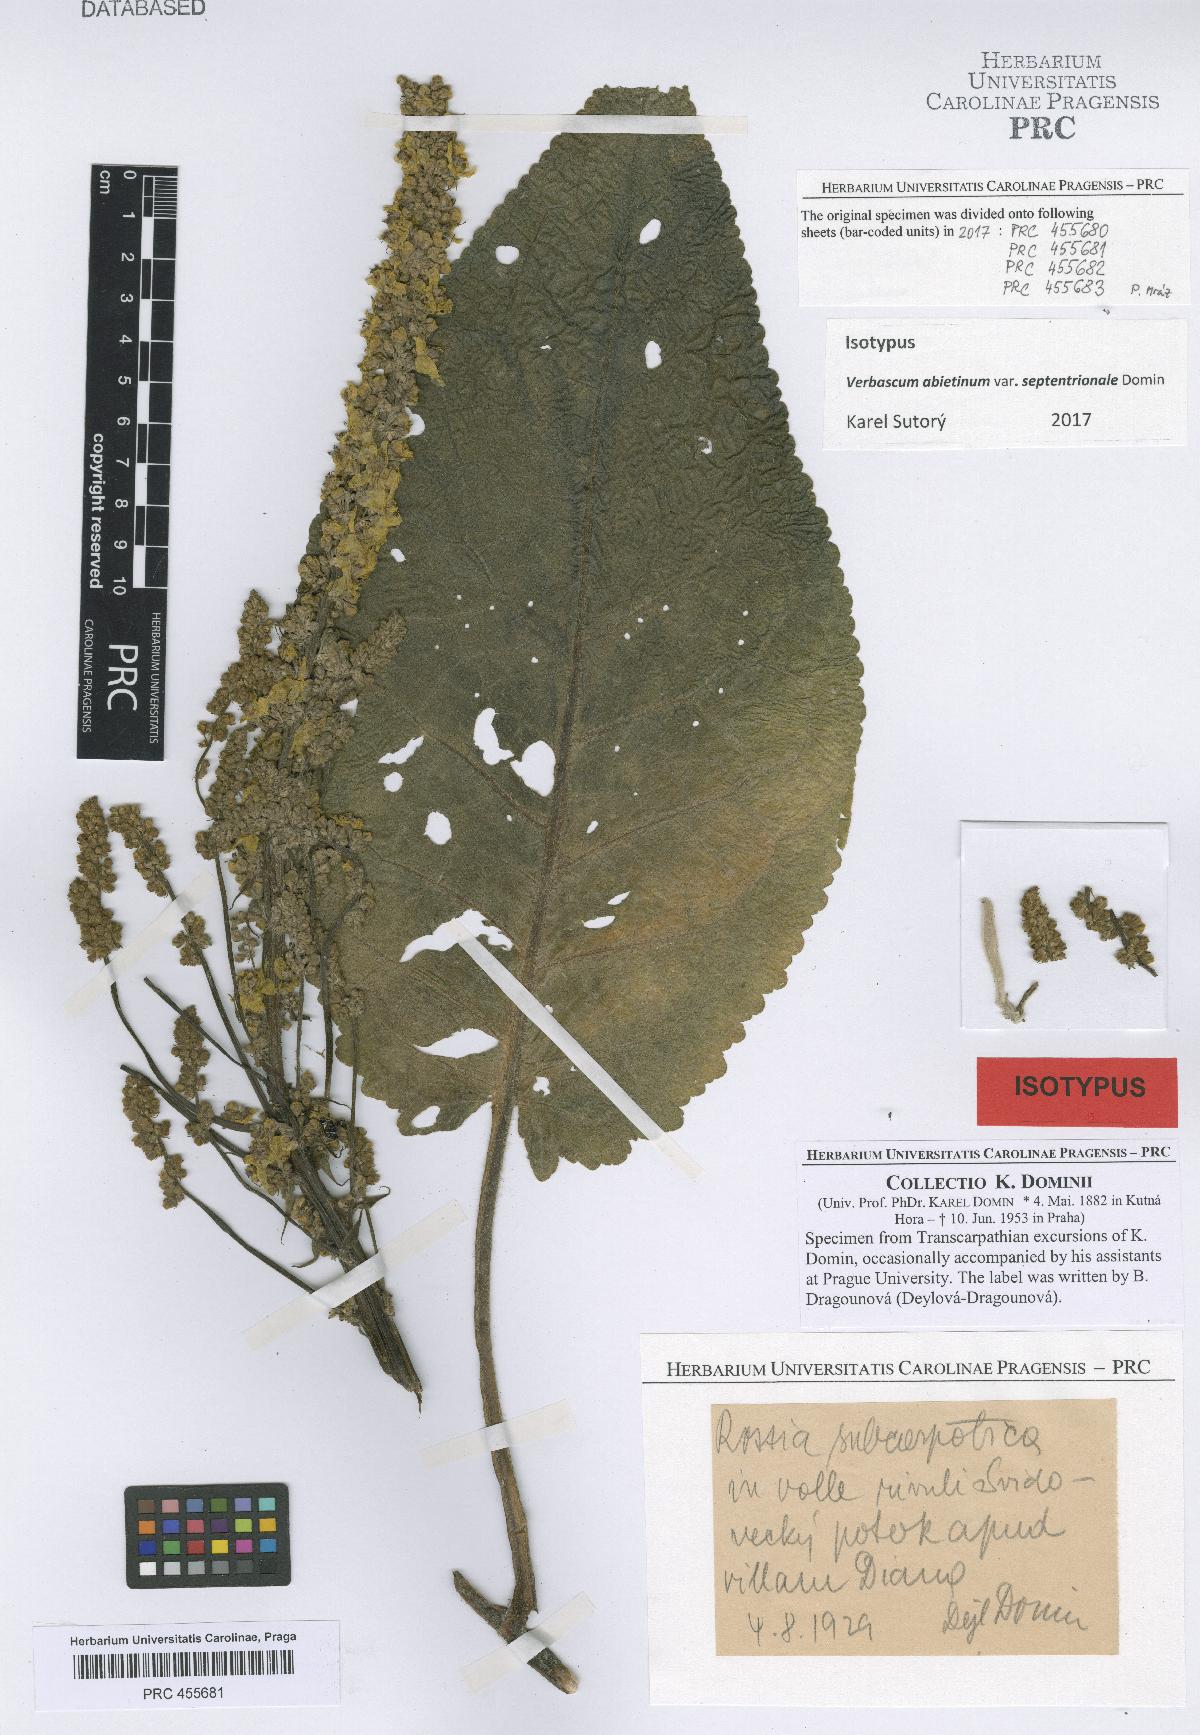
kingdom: Plantae
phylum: Tracheophyta
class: Magnoliopsida
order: Lamiales
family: Scrophulariaceae
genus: Verbascum
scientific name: Verbascum nigrum
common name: Dark mullein
